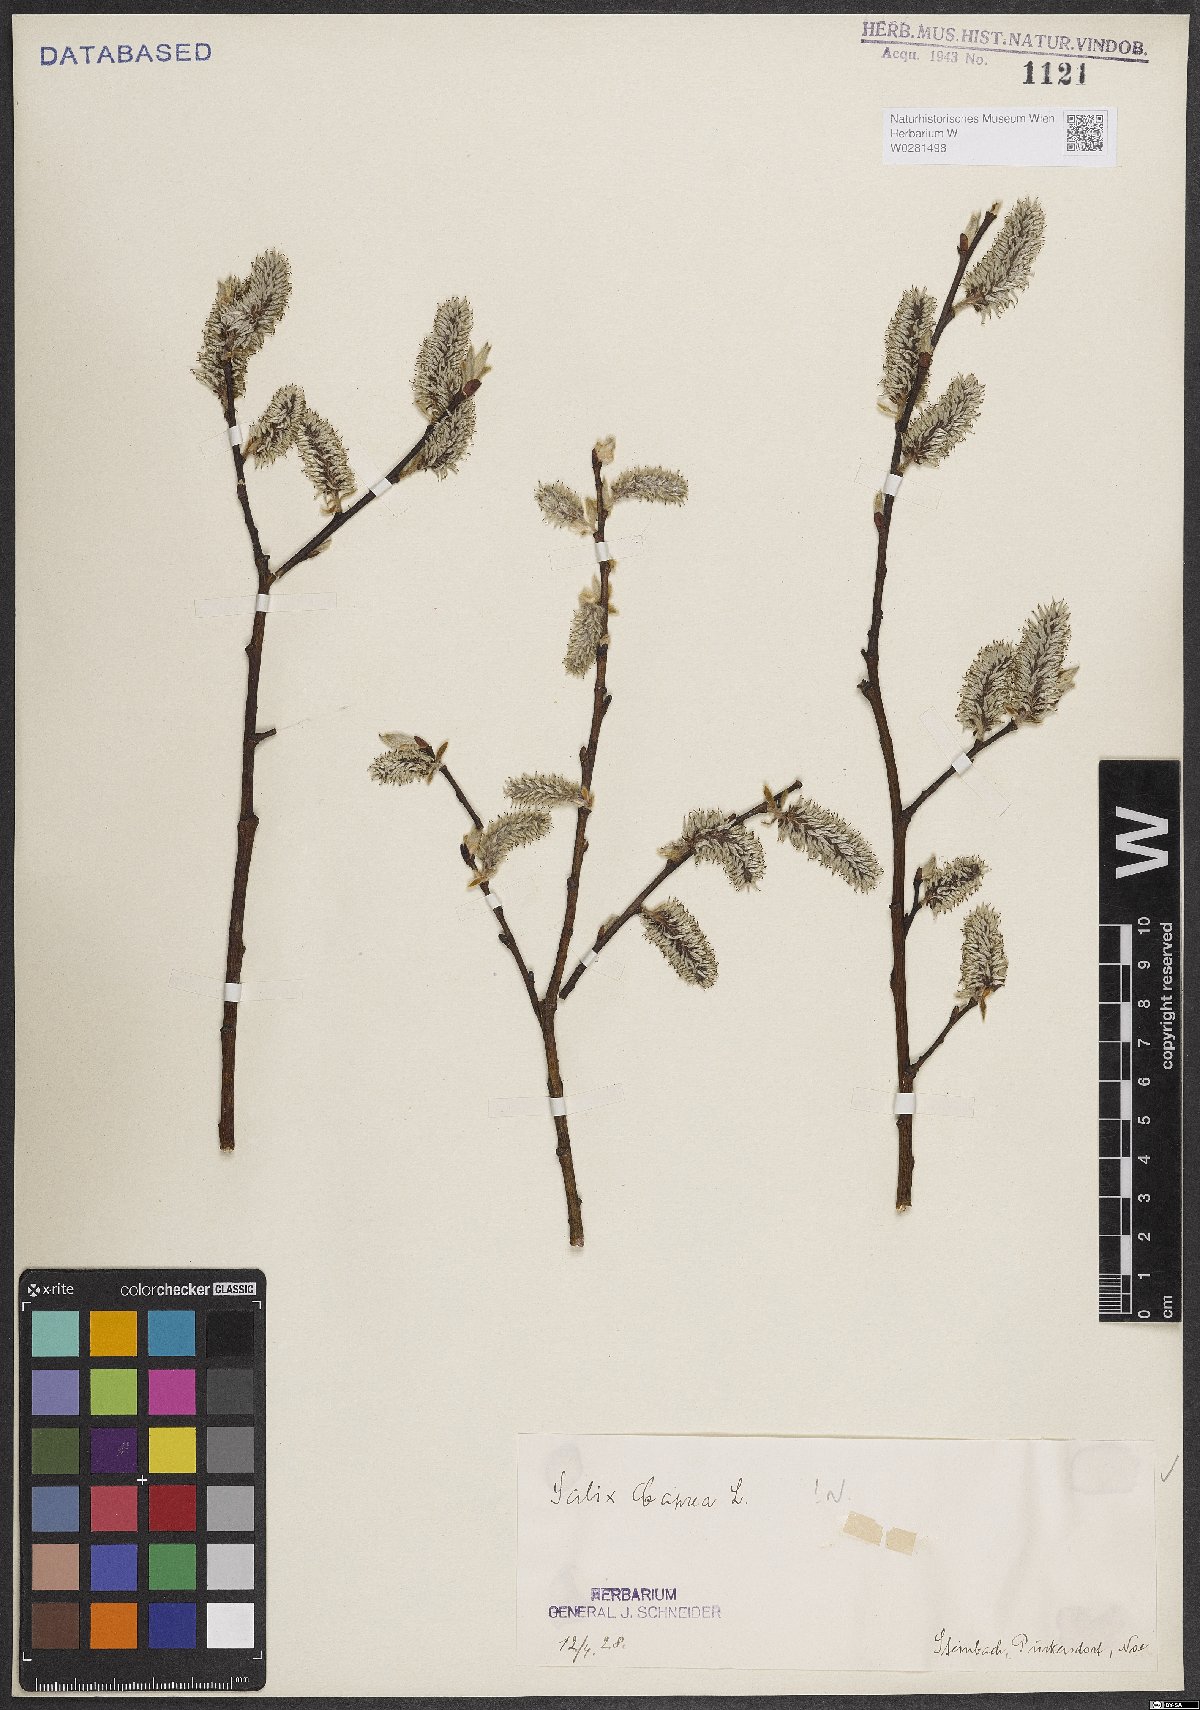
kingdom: Plantae
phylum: Tracheophyta
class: Magnoliopsida
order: Malpighiales
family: Salicaceae
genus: Salix
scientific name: Salix caprea
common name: Goat willow
